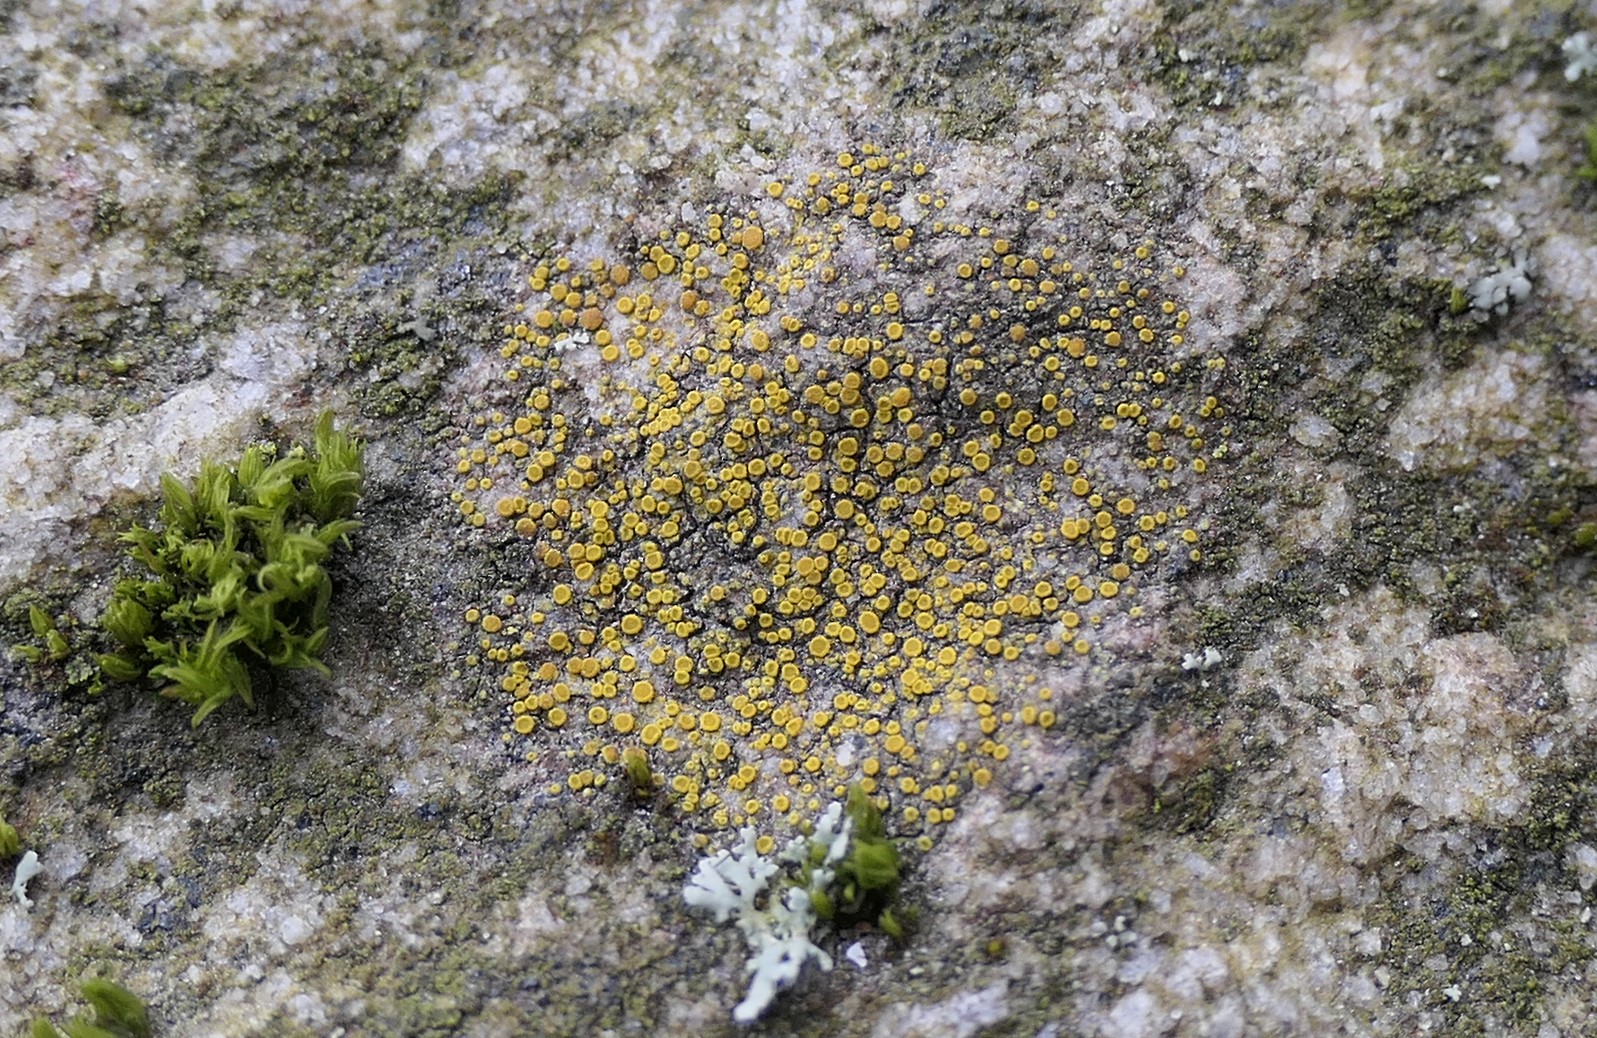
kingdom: Fungi
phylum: Ascomycota
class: Lecanoromycetes
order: Teloschistales
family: Teloschistaceae
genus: Athallia
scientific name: Athallia holocarpa
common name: liden orangelav
